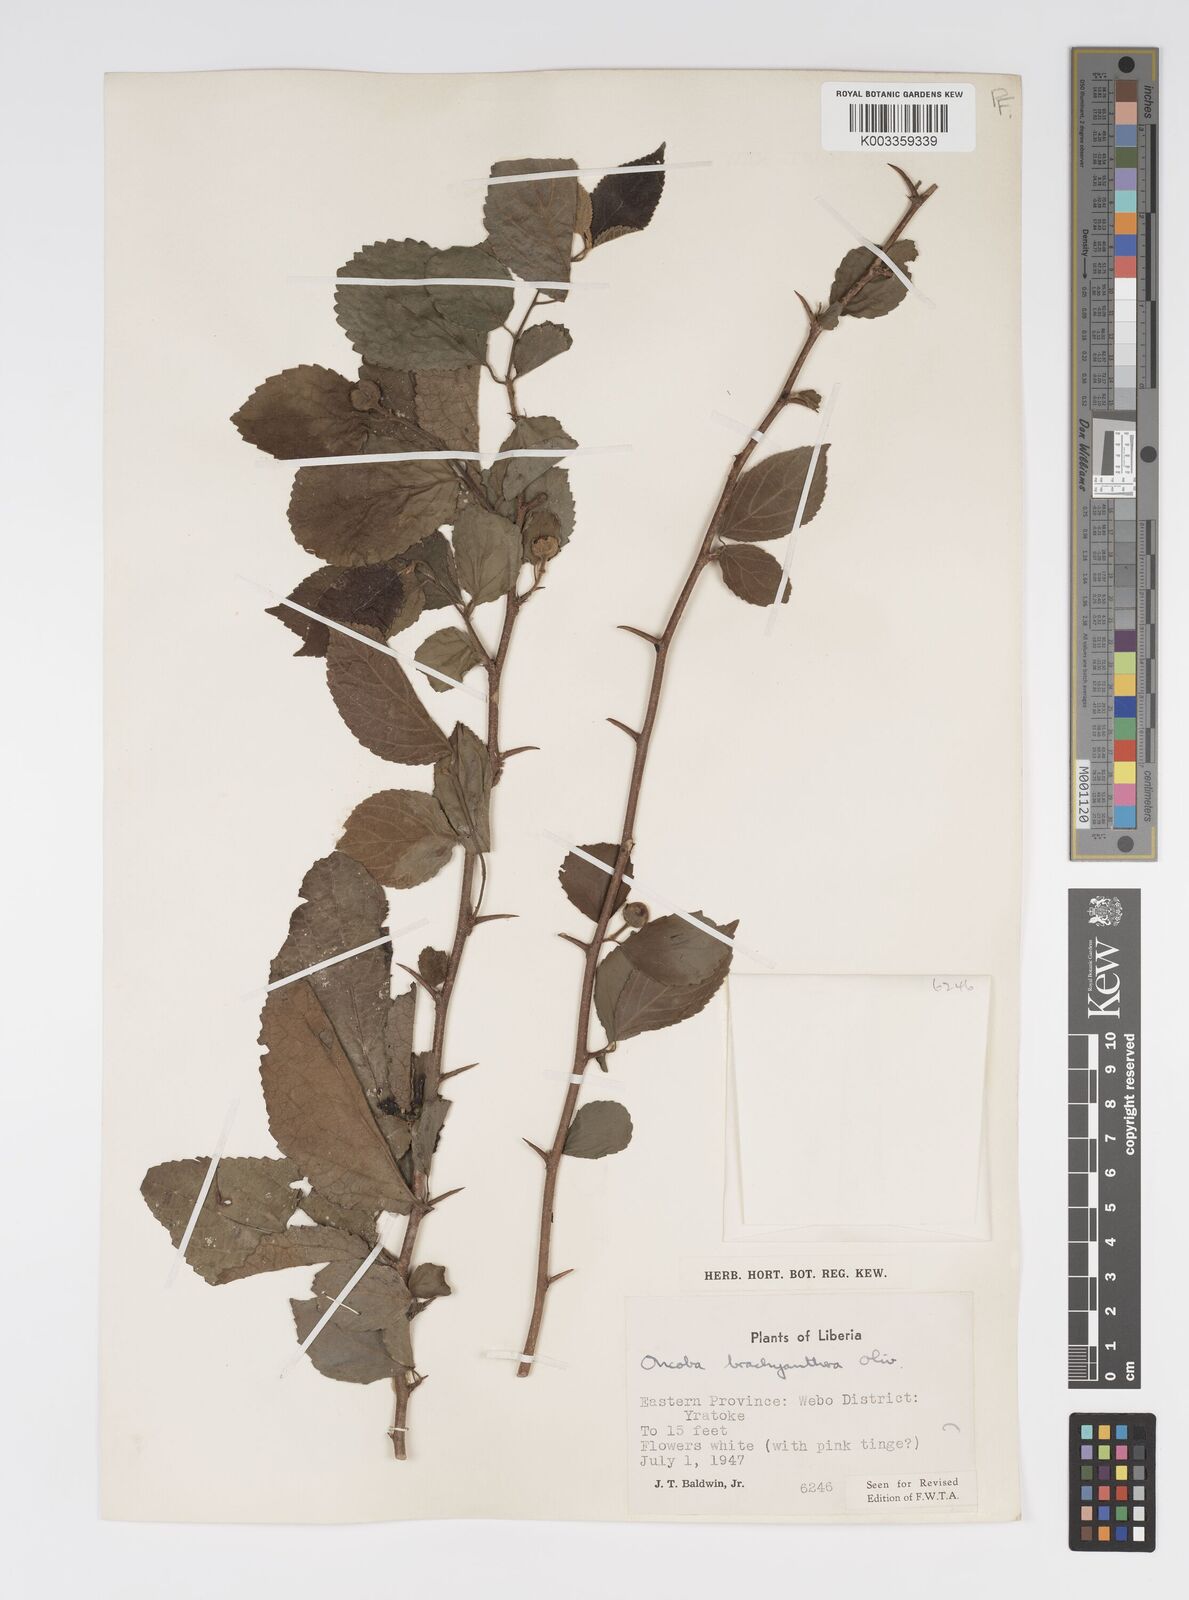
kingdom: Plantae
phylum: Tracheophyta
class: Magnoliopsida
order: Malpighiales
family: Salicaceae
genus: Oncoba
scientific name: Oncoba brachyanthera
